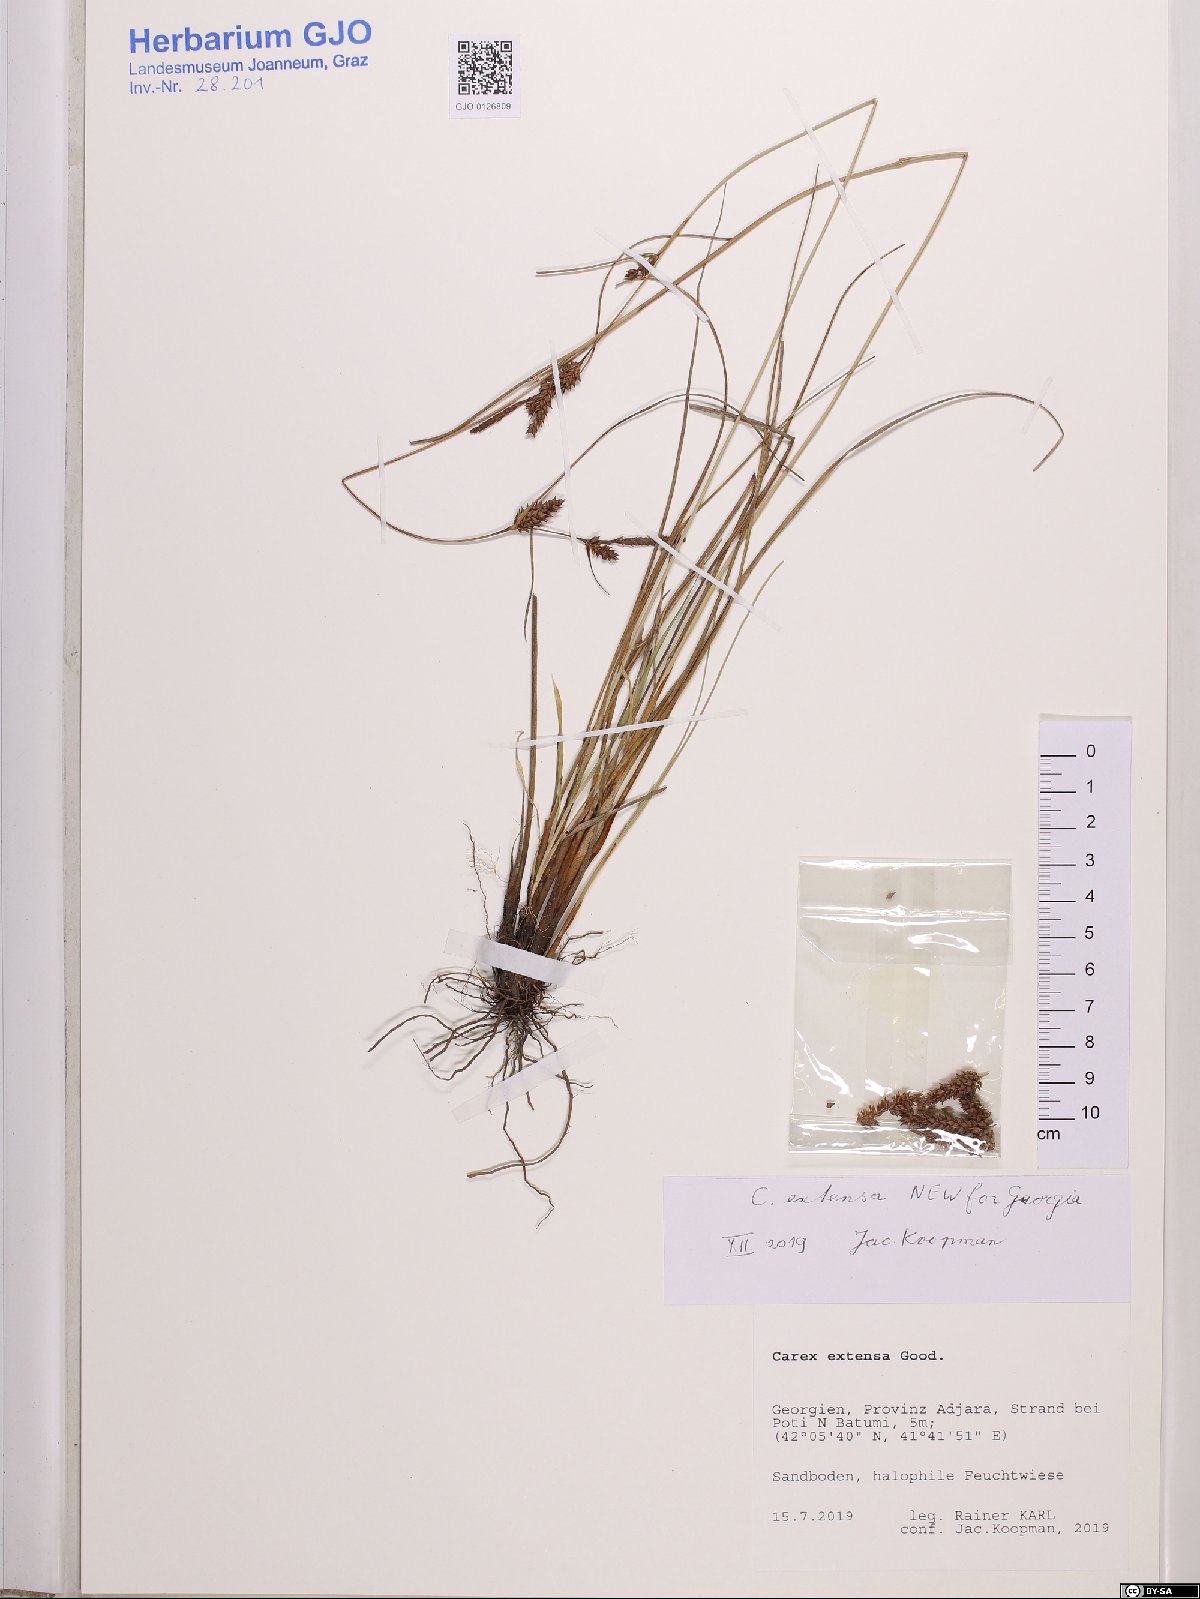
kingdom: Plantae
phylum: Tracheophyta
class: Liliopsida
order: Poales
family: Cyperaceae
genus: Carex
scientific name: Carex extensa
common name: Long-bracted sedge
